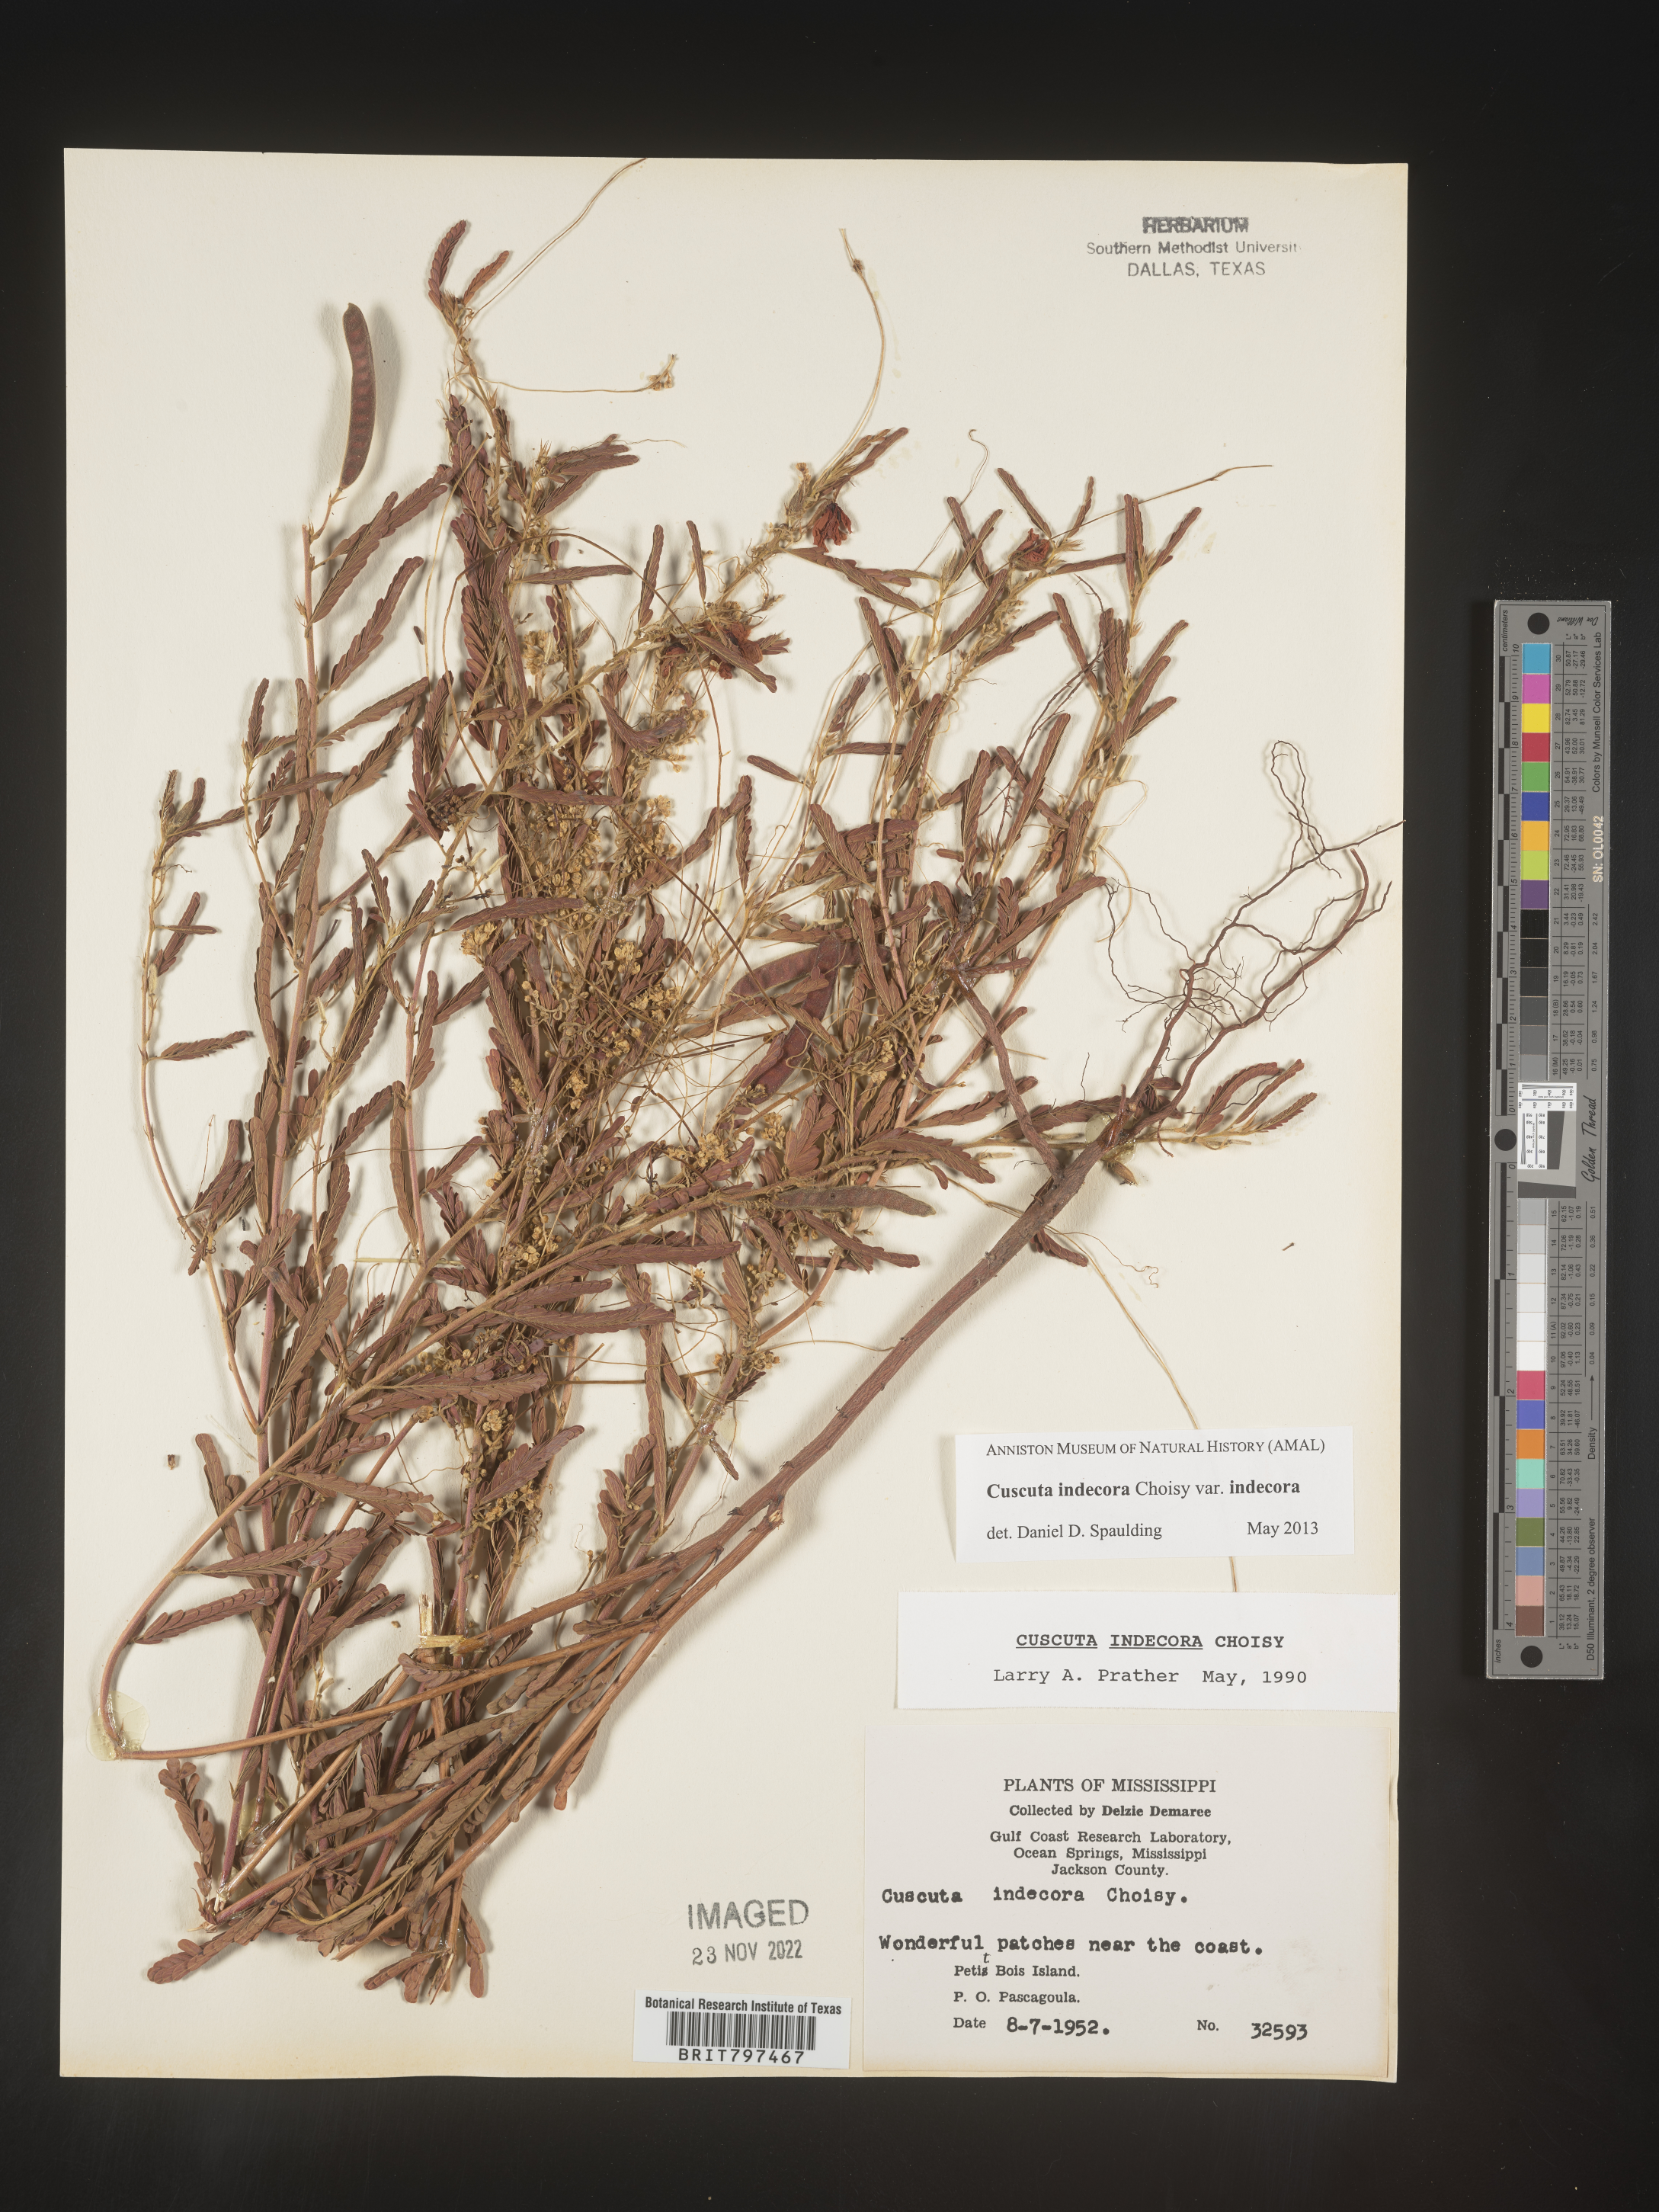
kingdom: Plantae
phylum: Tracheophyta
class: Magnoliopsida
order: Solanales
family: Convolvulaceae
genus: Cuscuta
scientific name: Cuscuta indecora
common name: Large-seed dodder
